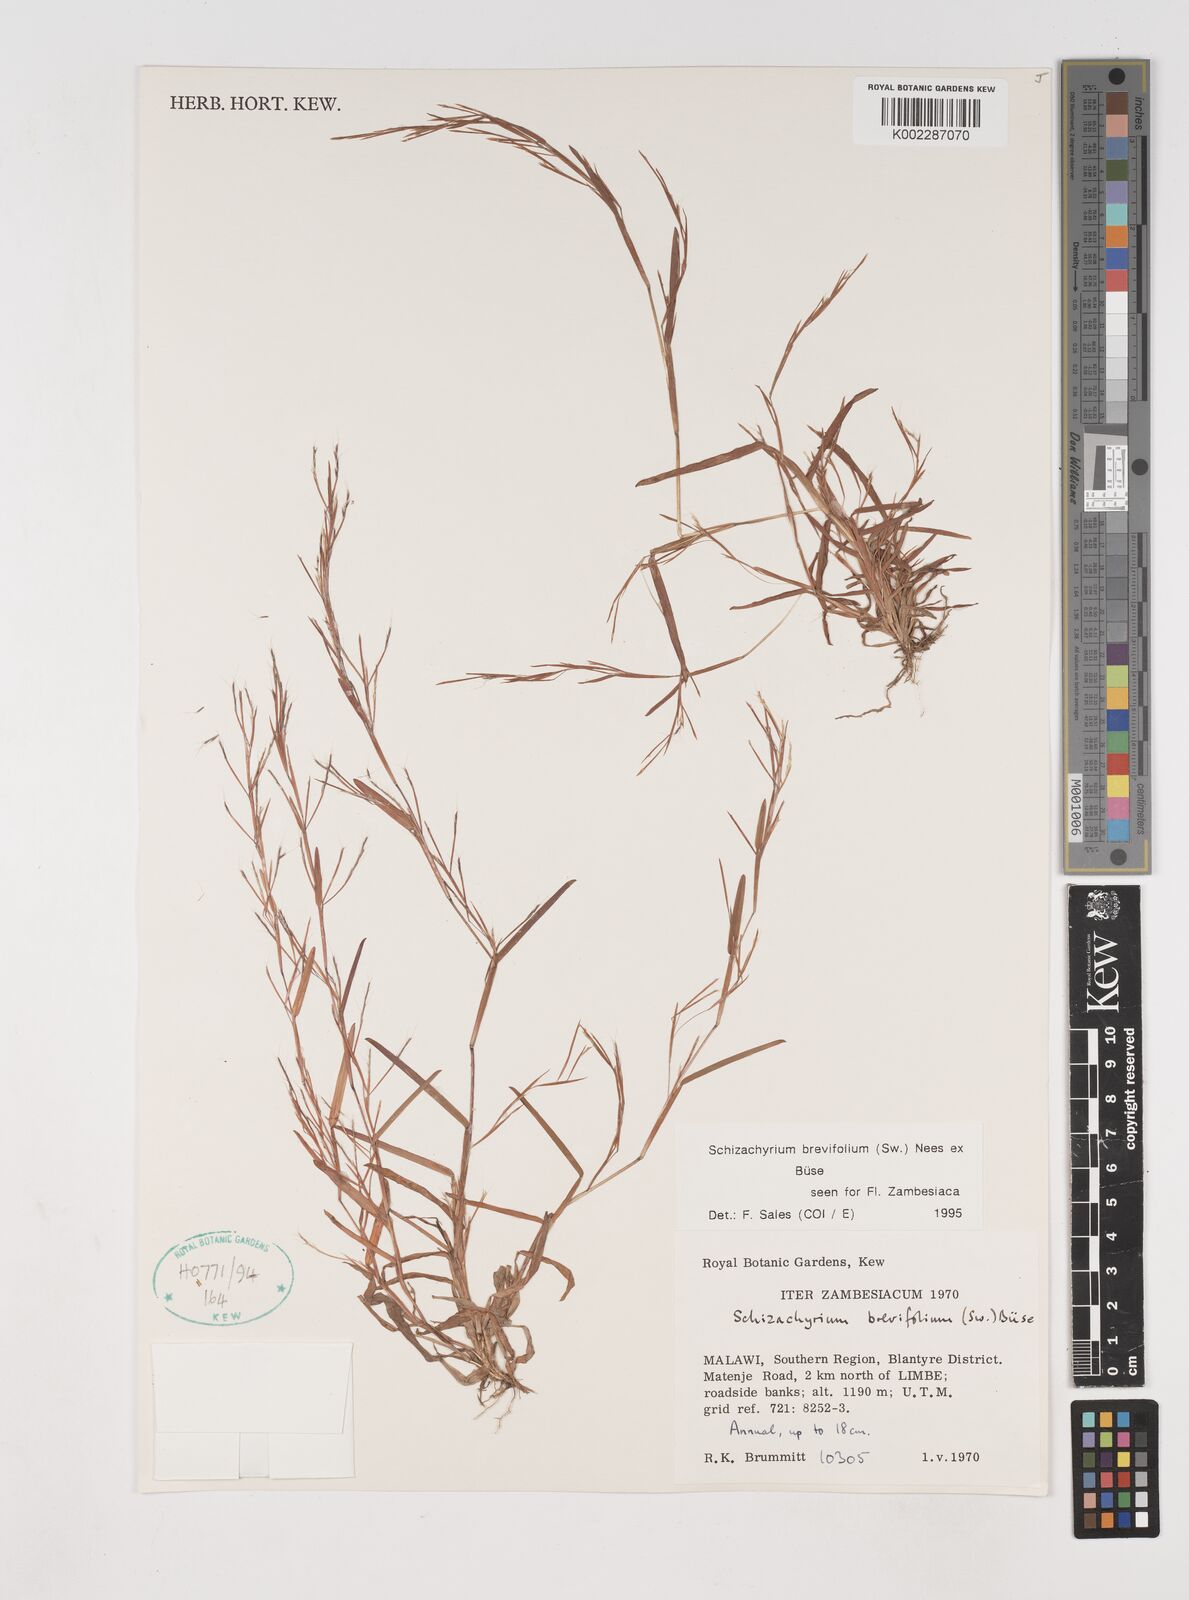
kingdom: Plantae
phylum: Tracheophyta
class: Liliopsida
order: Poales
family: Poaceae
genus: Schizachyrium
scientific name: Schizachyrium brevifolium
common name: Serillo dulce
